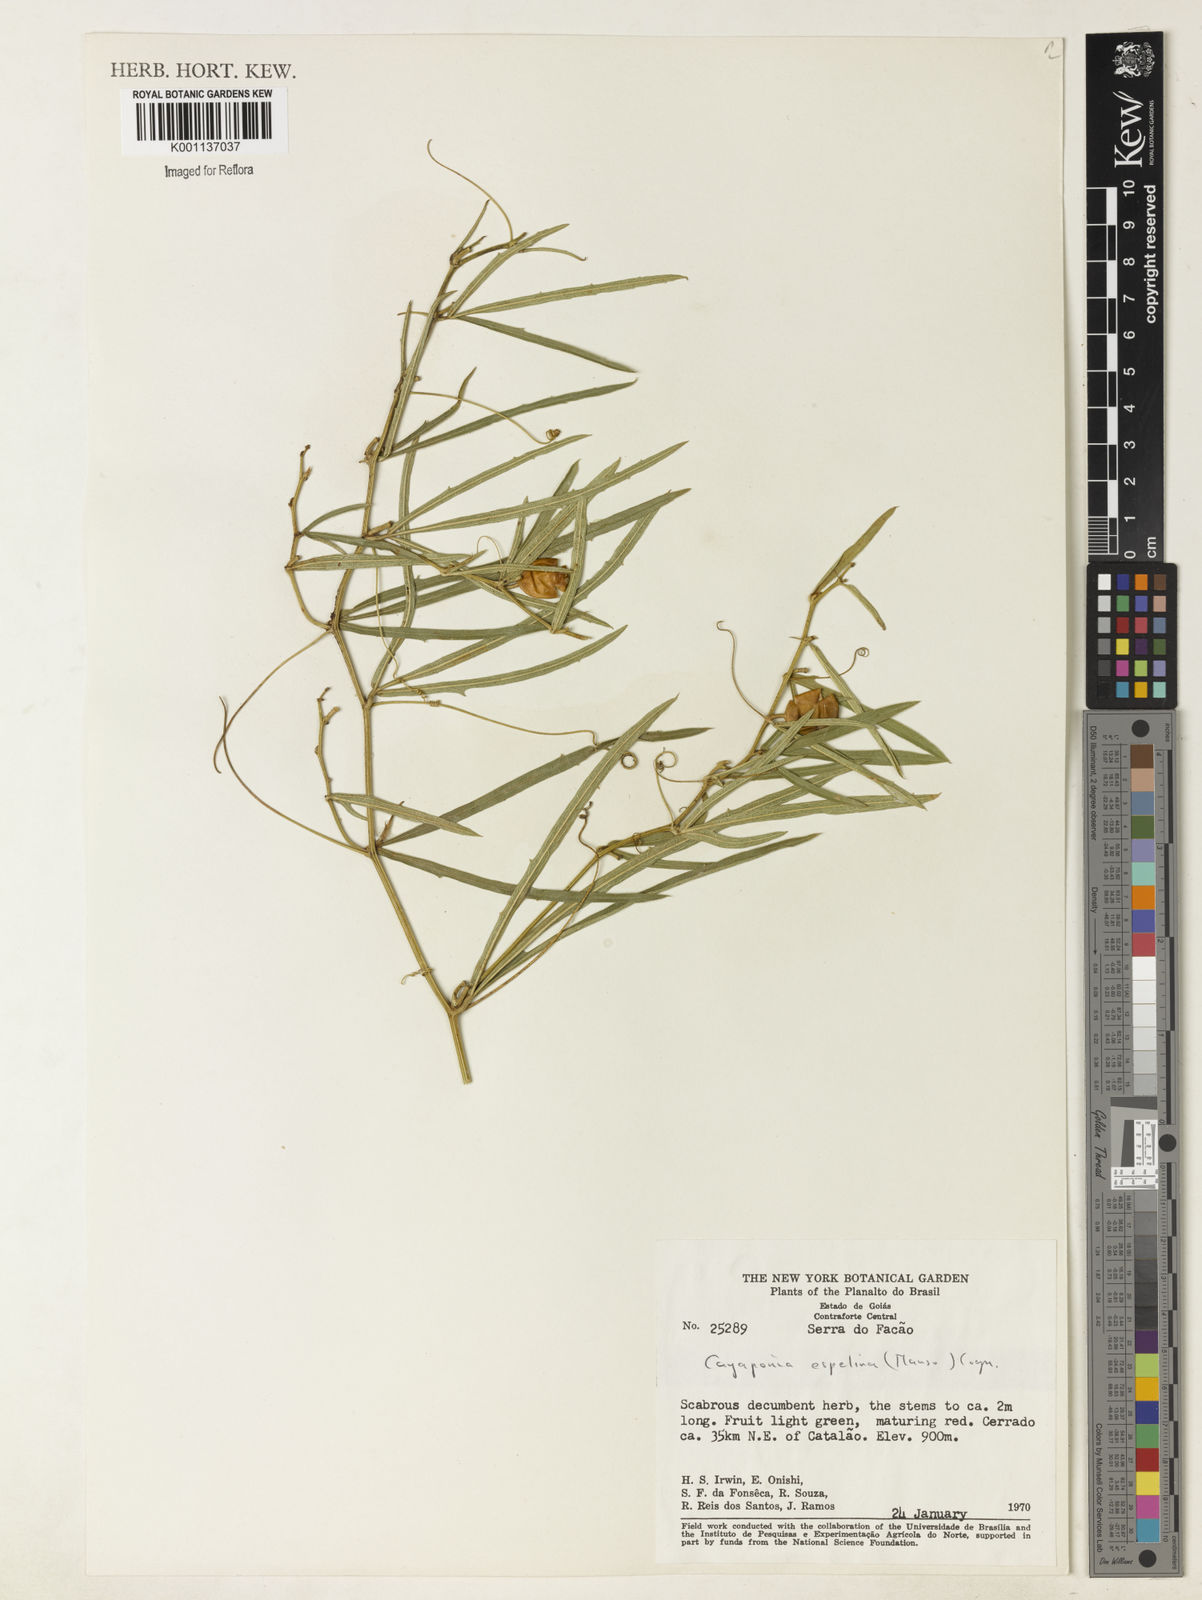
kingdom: Plantae
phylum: Tracheophyta
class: Magnoliopsida
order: Cucurbitales
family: Cucurbitaceae
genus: Cayaponia
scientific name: Cayaponia espelina
